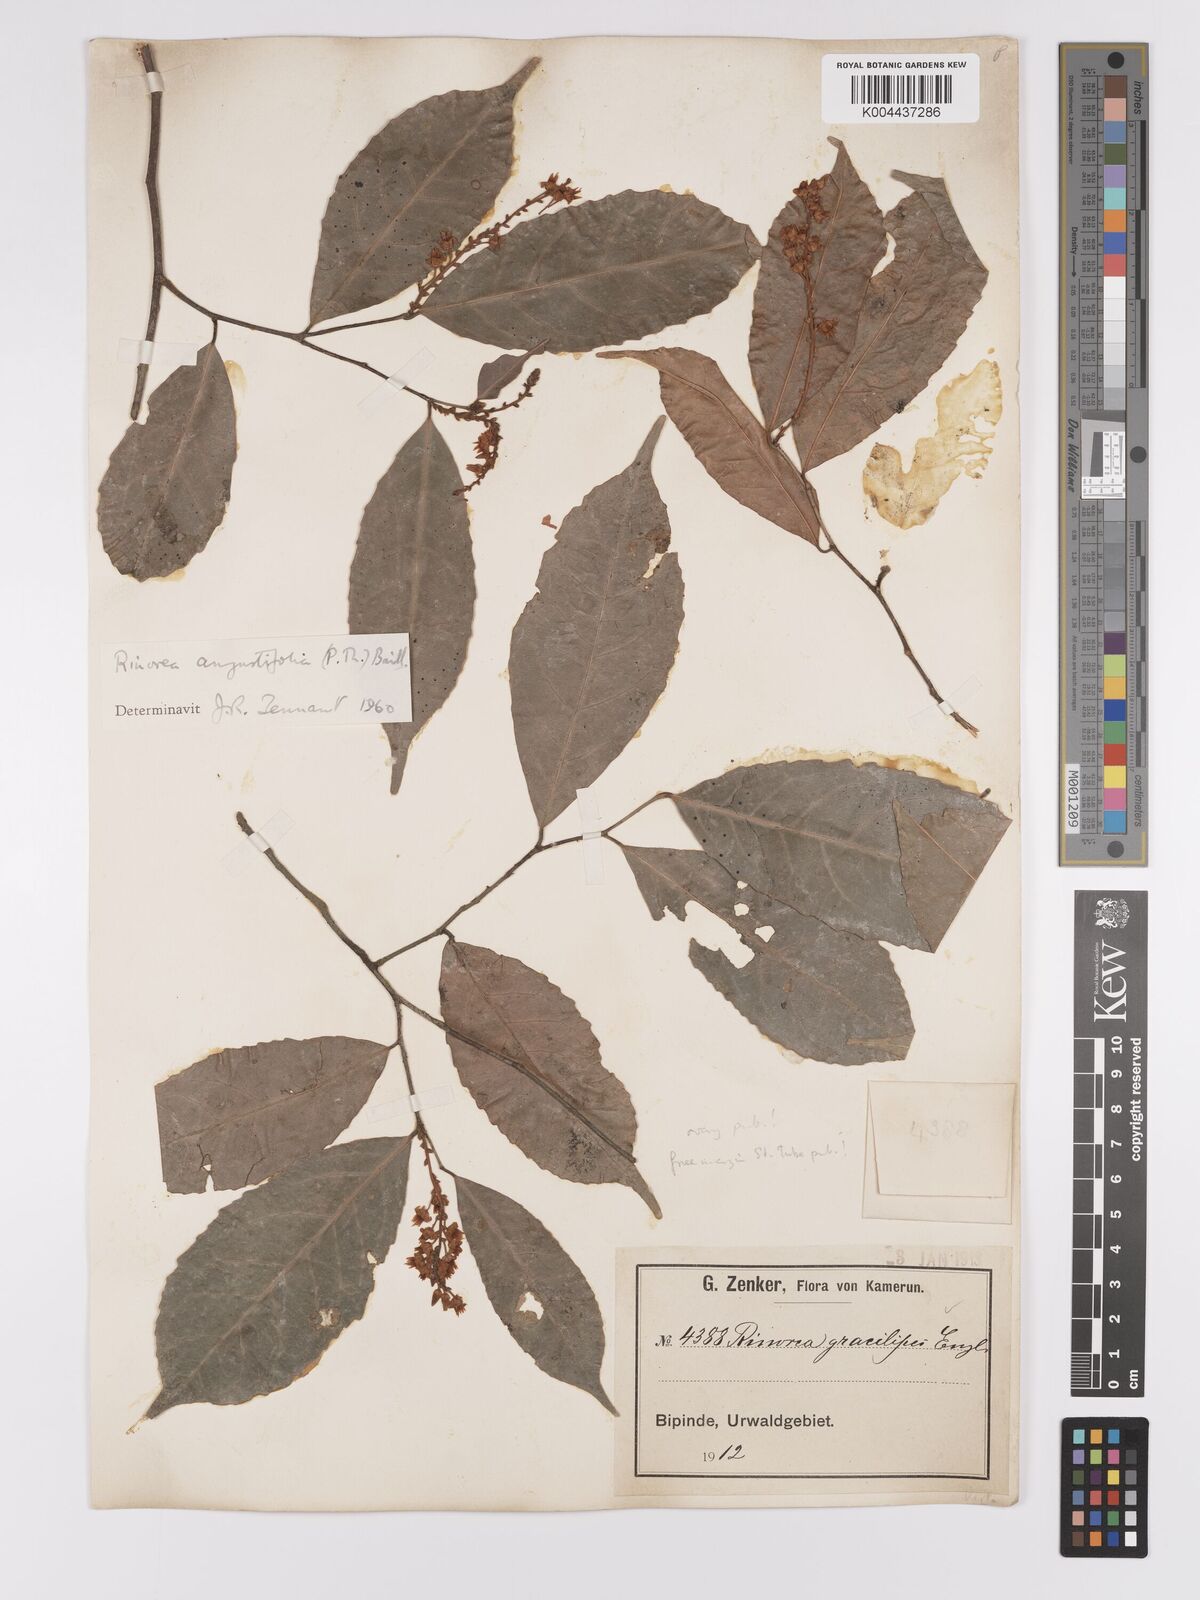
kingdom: Plantae
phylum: Tracheophyta
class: Magnoliopsida
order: Malpighiales
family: Violaceae
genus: Rinorea
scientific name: Rinorea angustifolia
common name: White violet-bush
